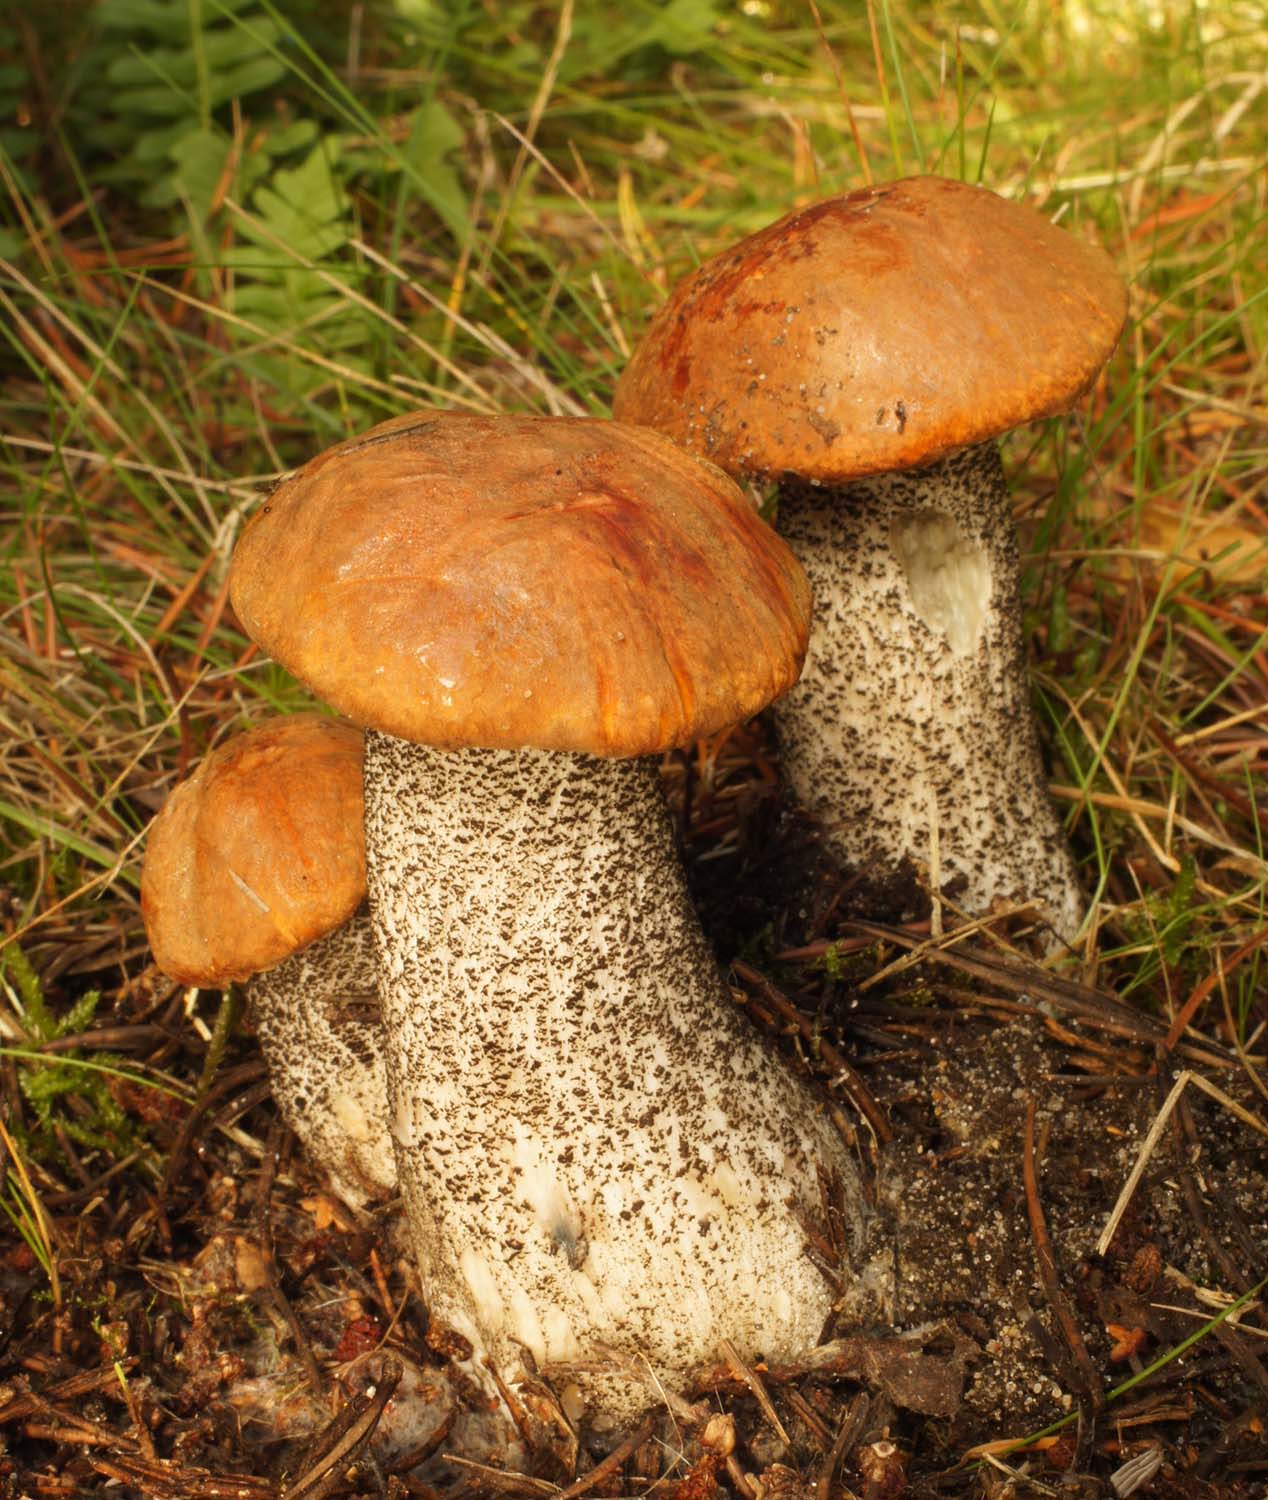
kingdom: Fungi
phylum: Basidiomycota
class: Agaricomycetes
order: Boletales
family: Boletaceae
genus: Leccinum
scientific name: Leccinum versipelle
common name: orange skælrørhat
